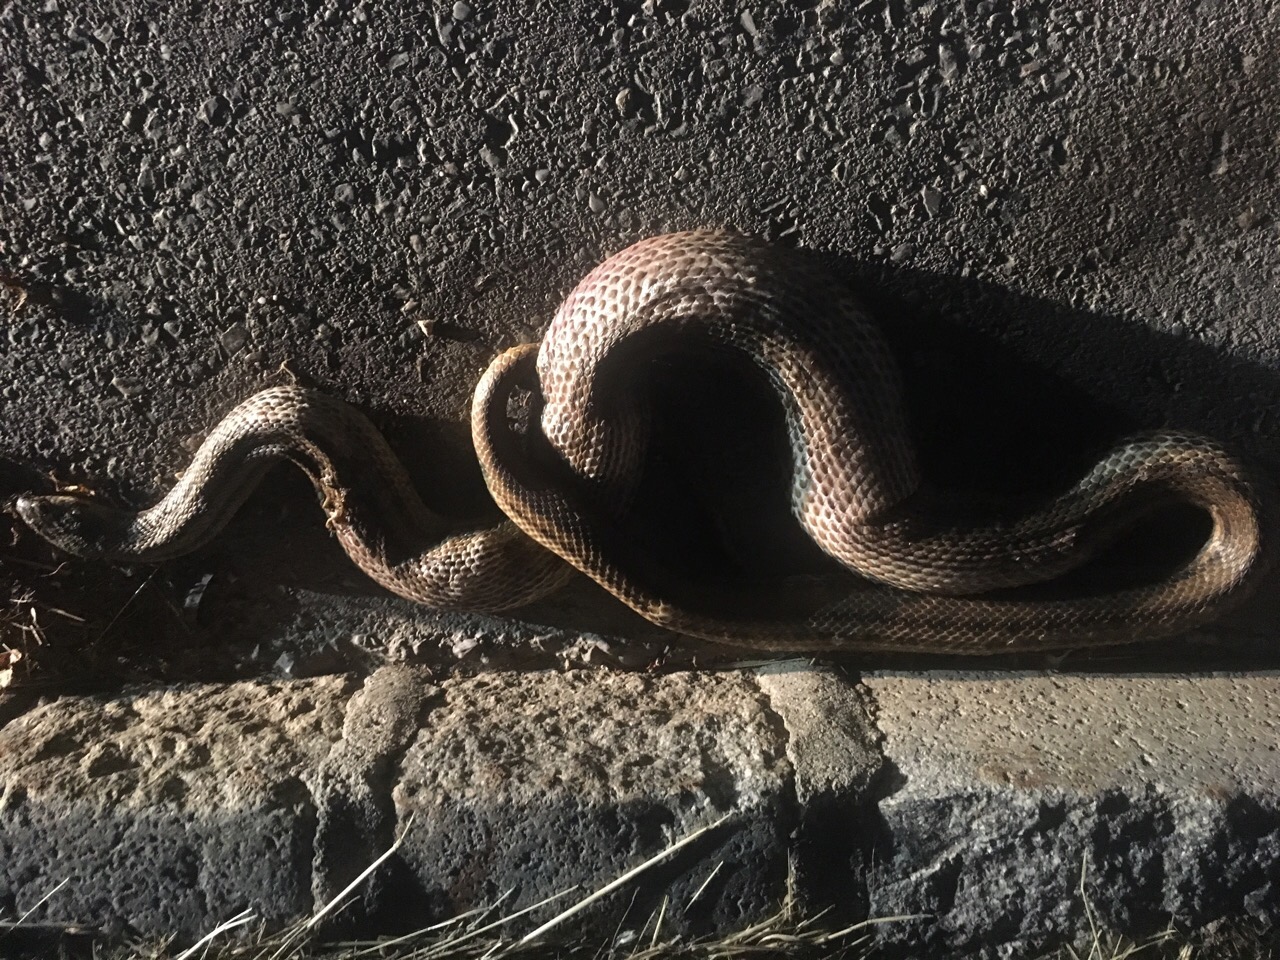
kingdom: Animalia
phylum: Chordata
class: Squamata
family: Colubridae
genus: Zamenis
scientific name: Zamenis longissimus
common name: Aesculapean snake
